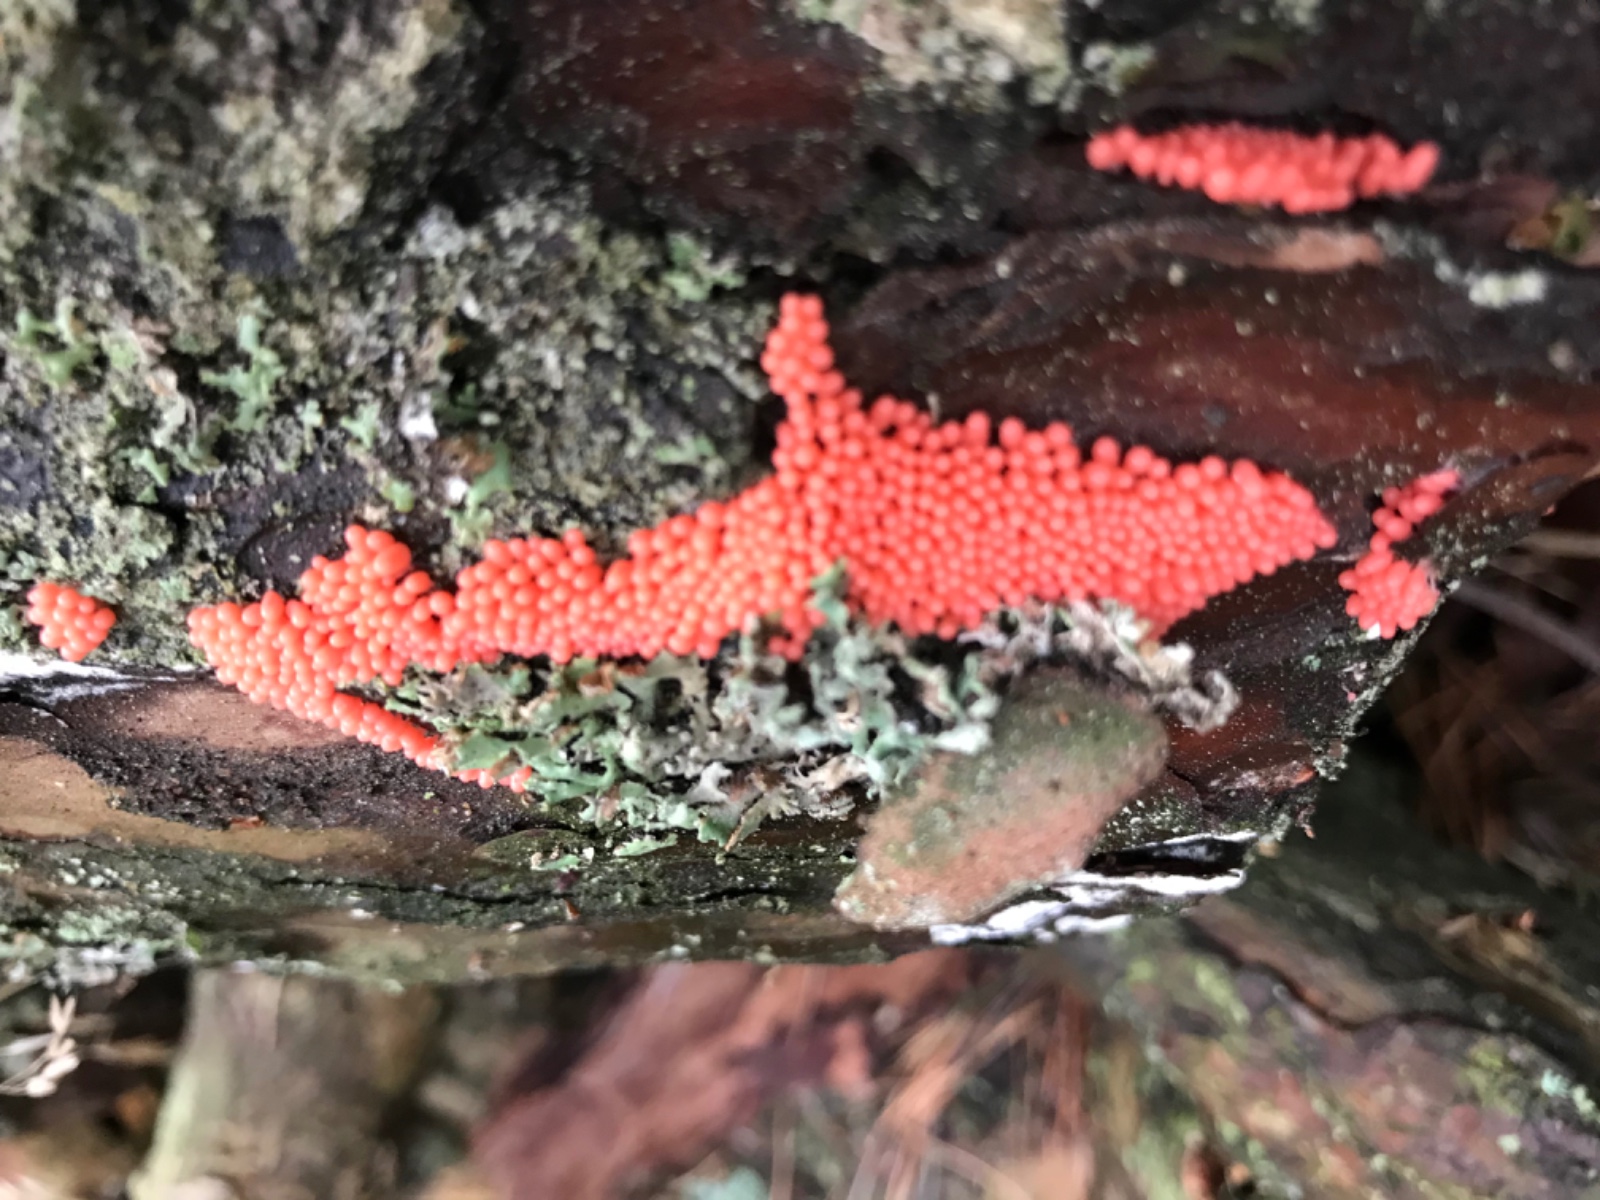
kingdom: Protozoa
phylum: Mycetozoa
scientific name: Mycetozoa
